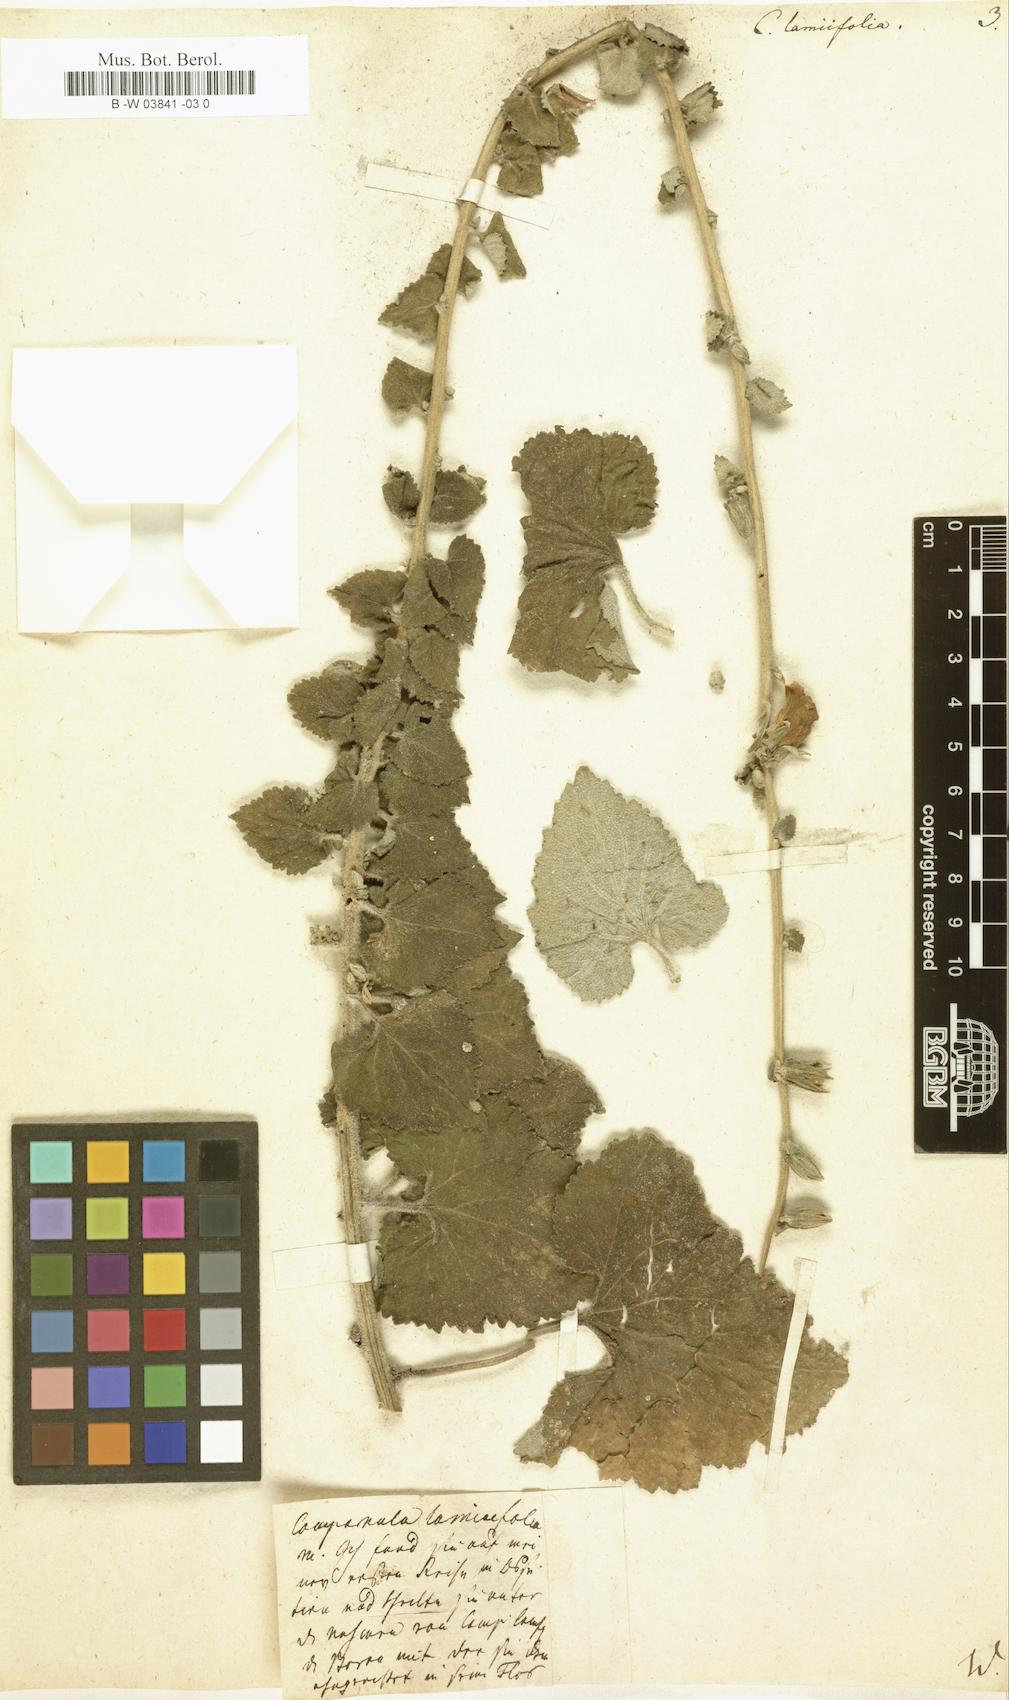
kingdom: Plantae
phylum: Tracheophyta
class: Magnoliopsida
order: Asterales
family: Campanulaceae
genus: Campanula
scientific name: Campanula alliariifolia
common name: Cornish bellflower
